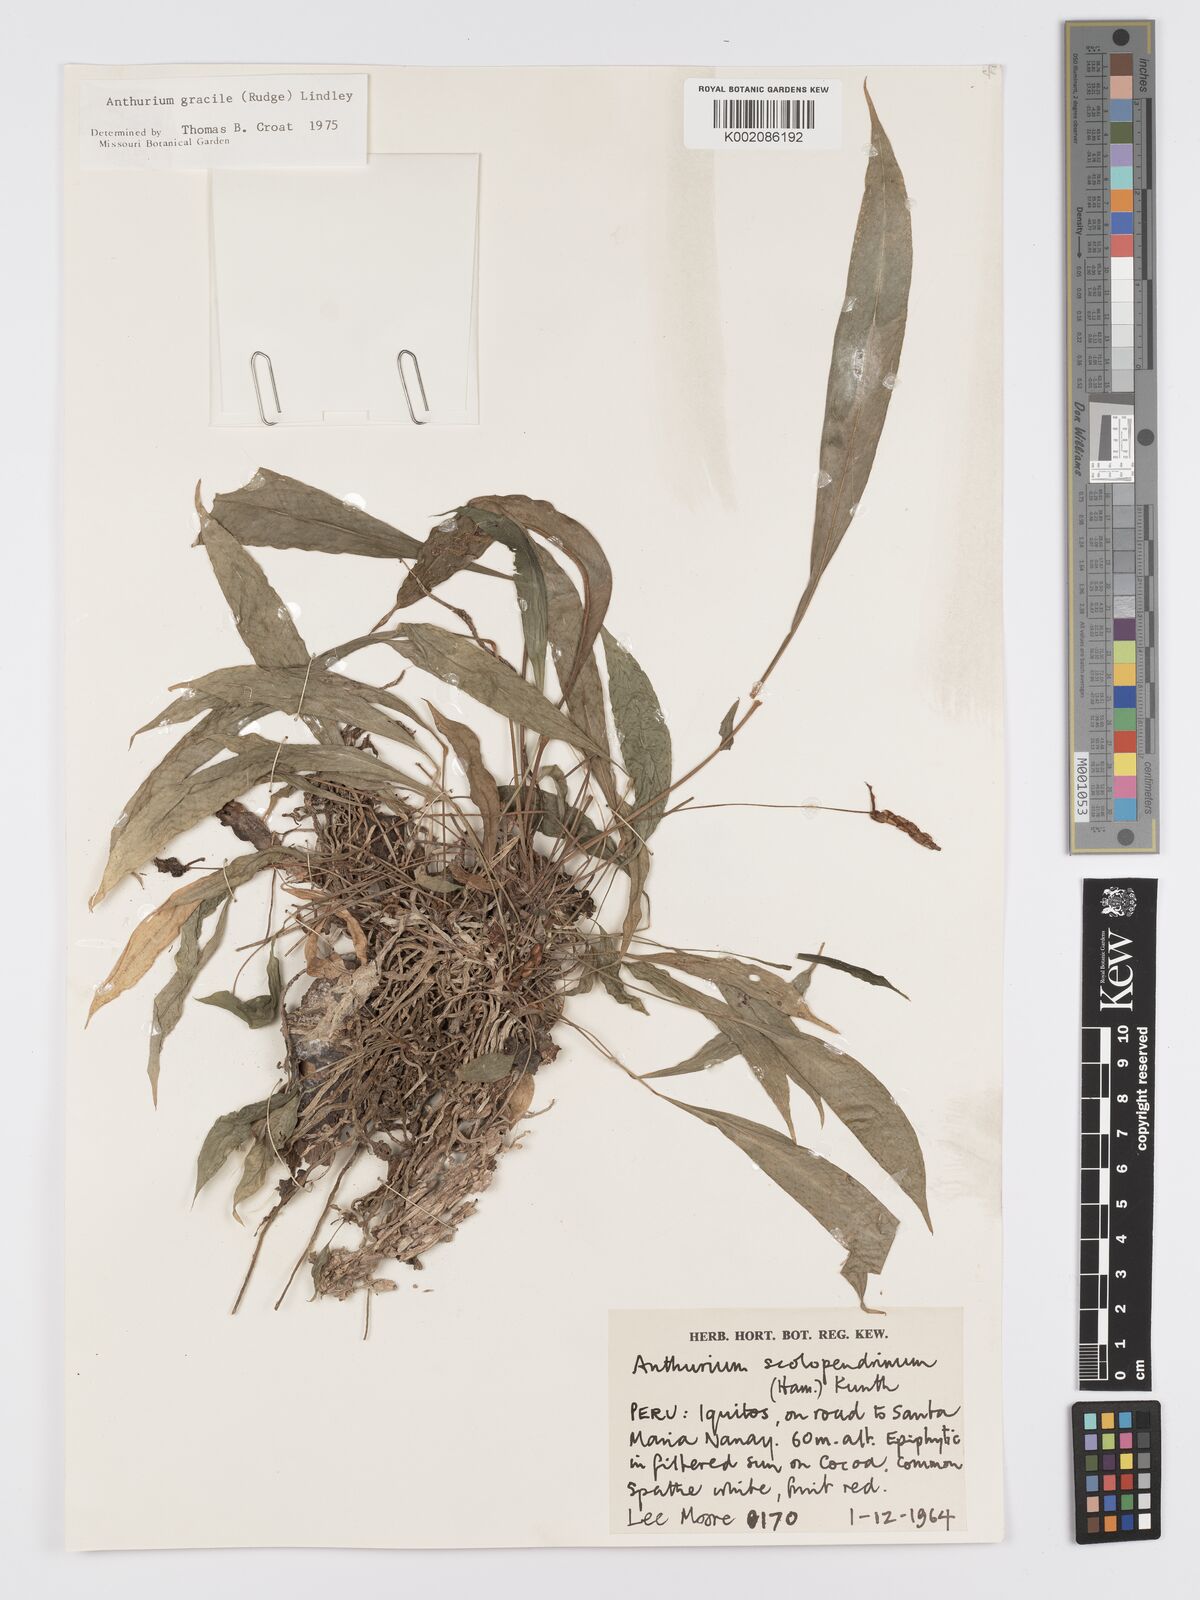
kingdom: Plantae
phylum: Tracheophyta
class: Liliopsida
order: Alismatales
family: Araceae
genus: Anthurium
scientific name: Anthurium gracile
